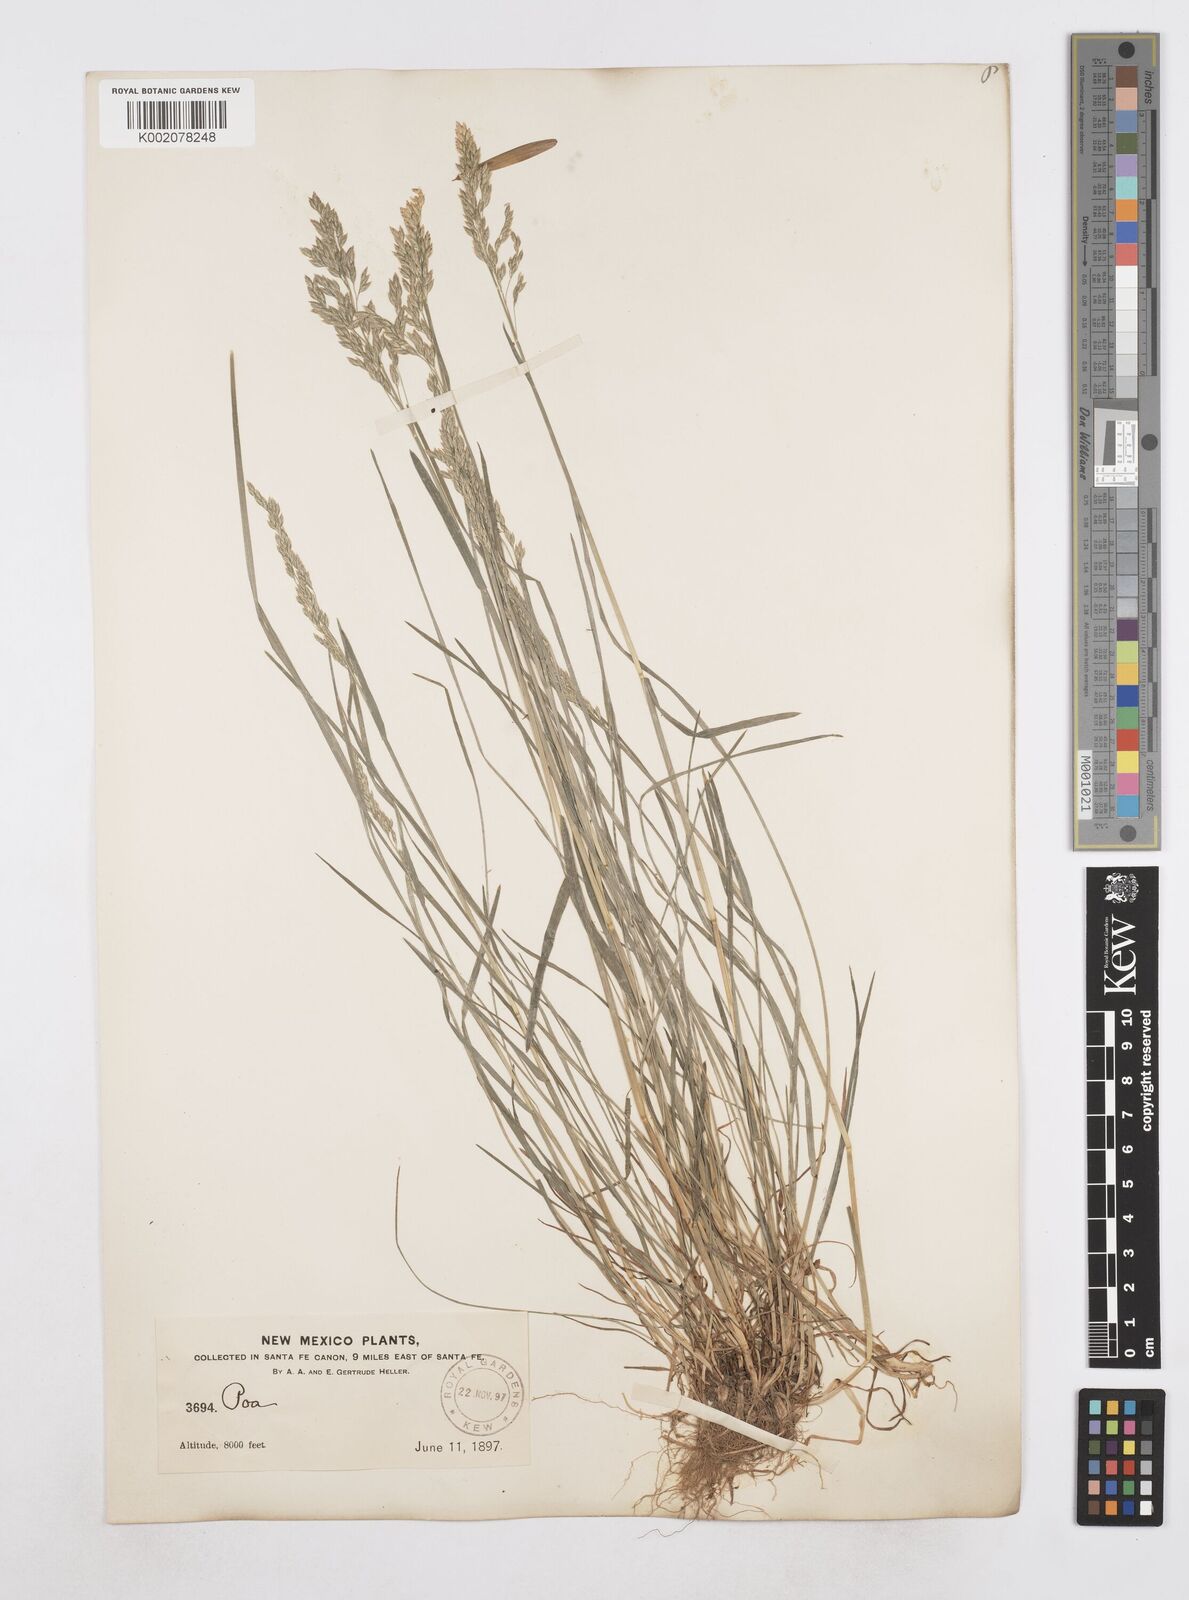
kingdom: Plantae
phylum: Tracheophyta
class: Liliopsida
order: Poales
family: Poaceae
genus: Poa
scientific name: Poa
